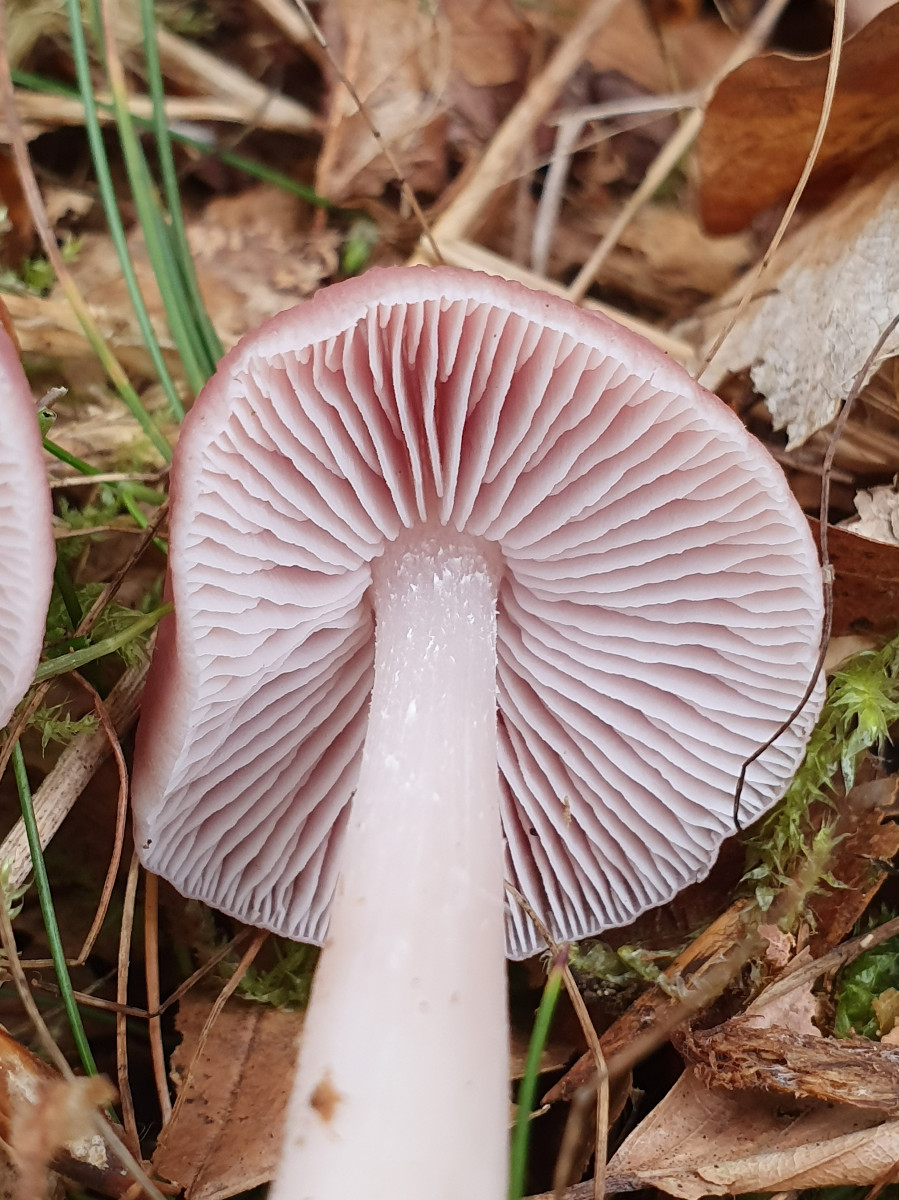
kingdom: Fungi
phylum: Basidiomycota
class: Agaricomycetes
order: Agaricales
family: Mycenaceae
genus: Mycena
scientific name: Mycena rosea
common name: rosa huesvamp
